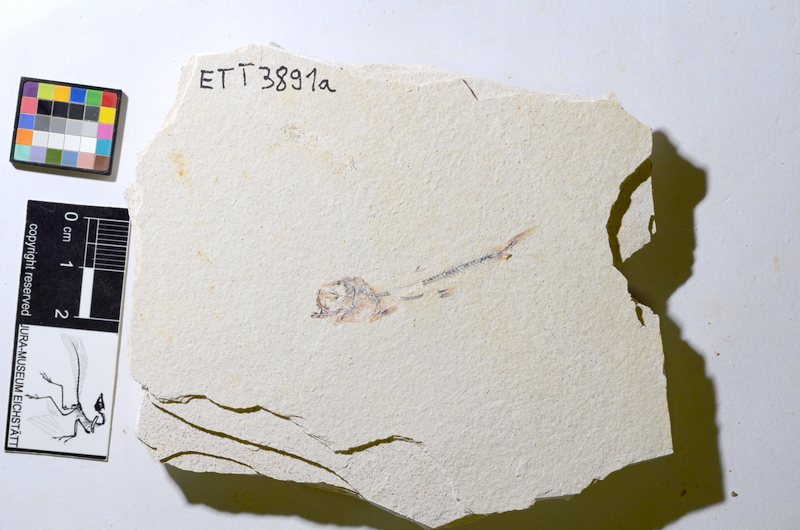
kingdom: Animalia
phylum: Chordata
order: Salmoniformes
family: Orthogonikleithridae
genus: Orthogonikleithrus
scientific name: Orthogonikleithrus hoelli
